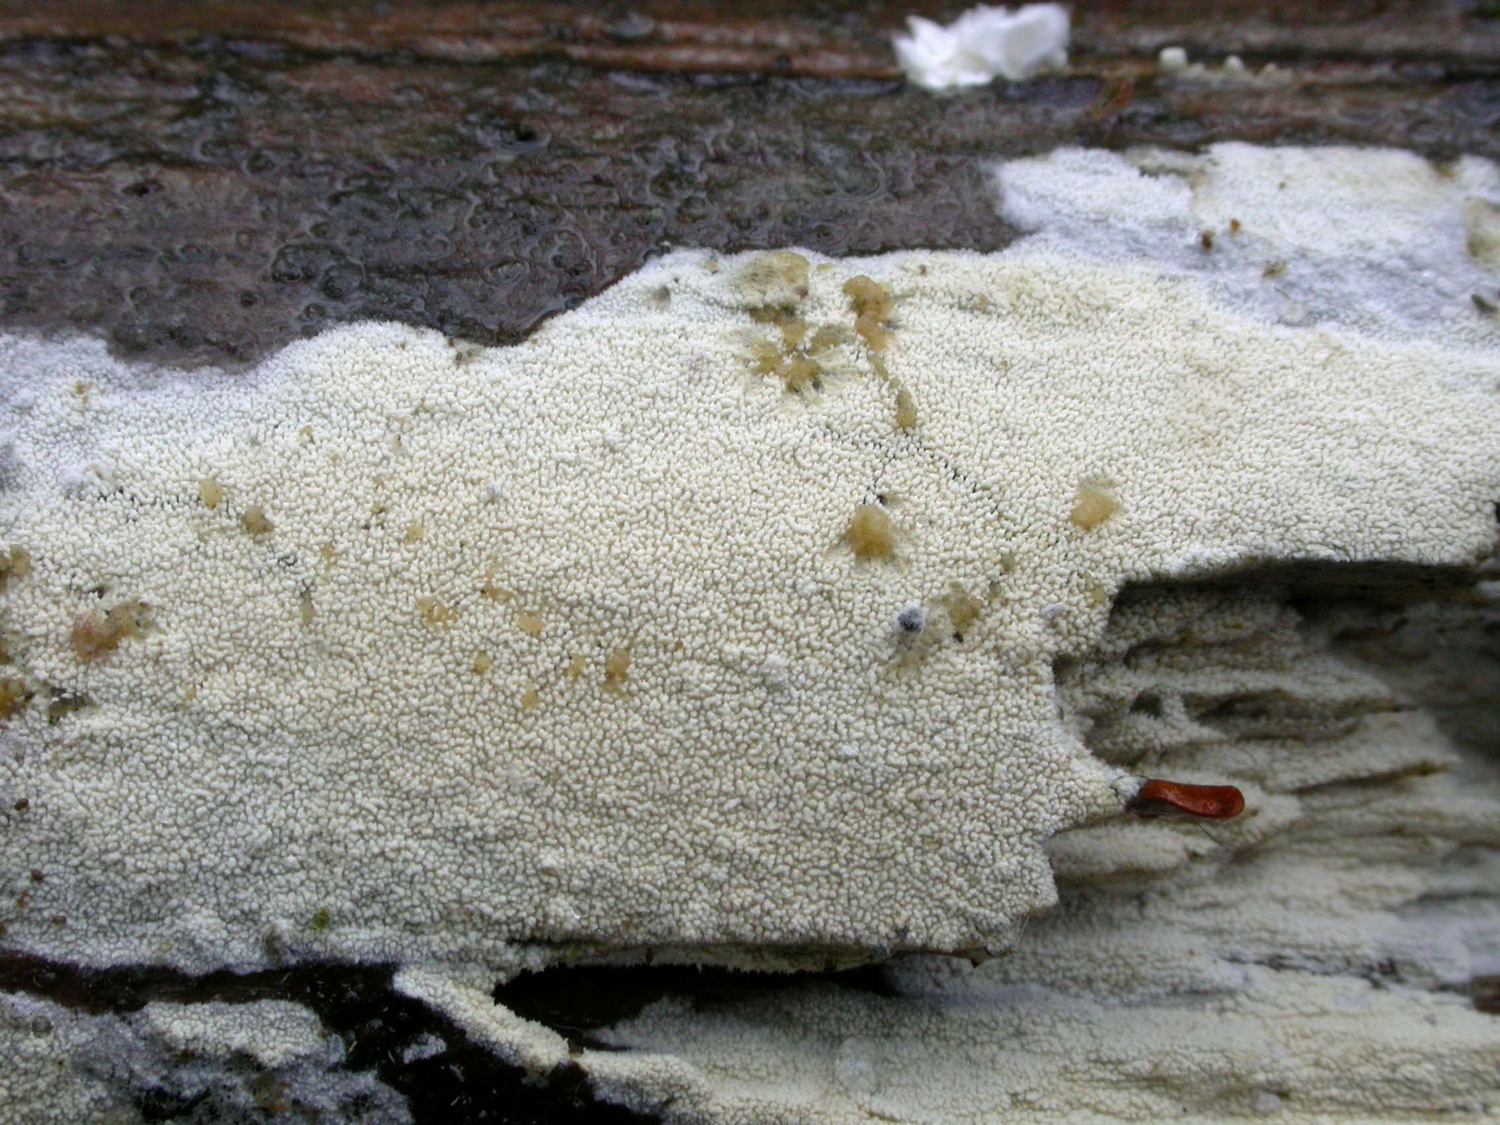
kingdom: Fungi
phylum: Basidiomycota
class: Agaricomycetes
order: Hymenochaetales
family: Schizoporaceae
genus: Xylodon
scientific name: Xylodon brevisetus
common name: tætvortet tandsvamp
